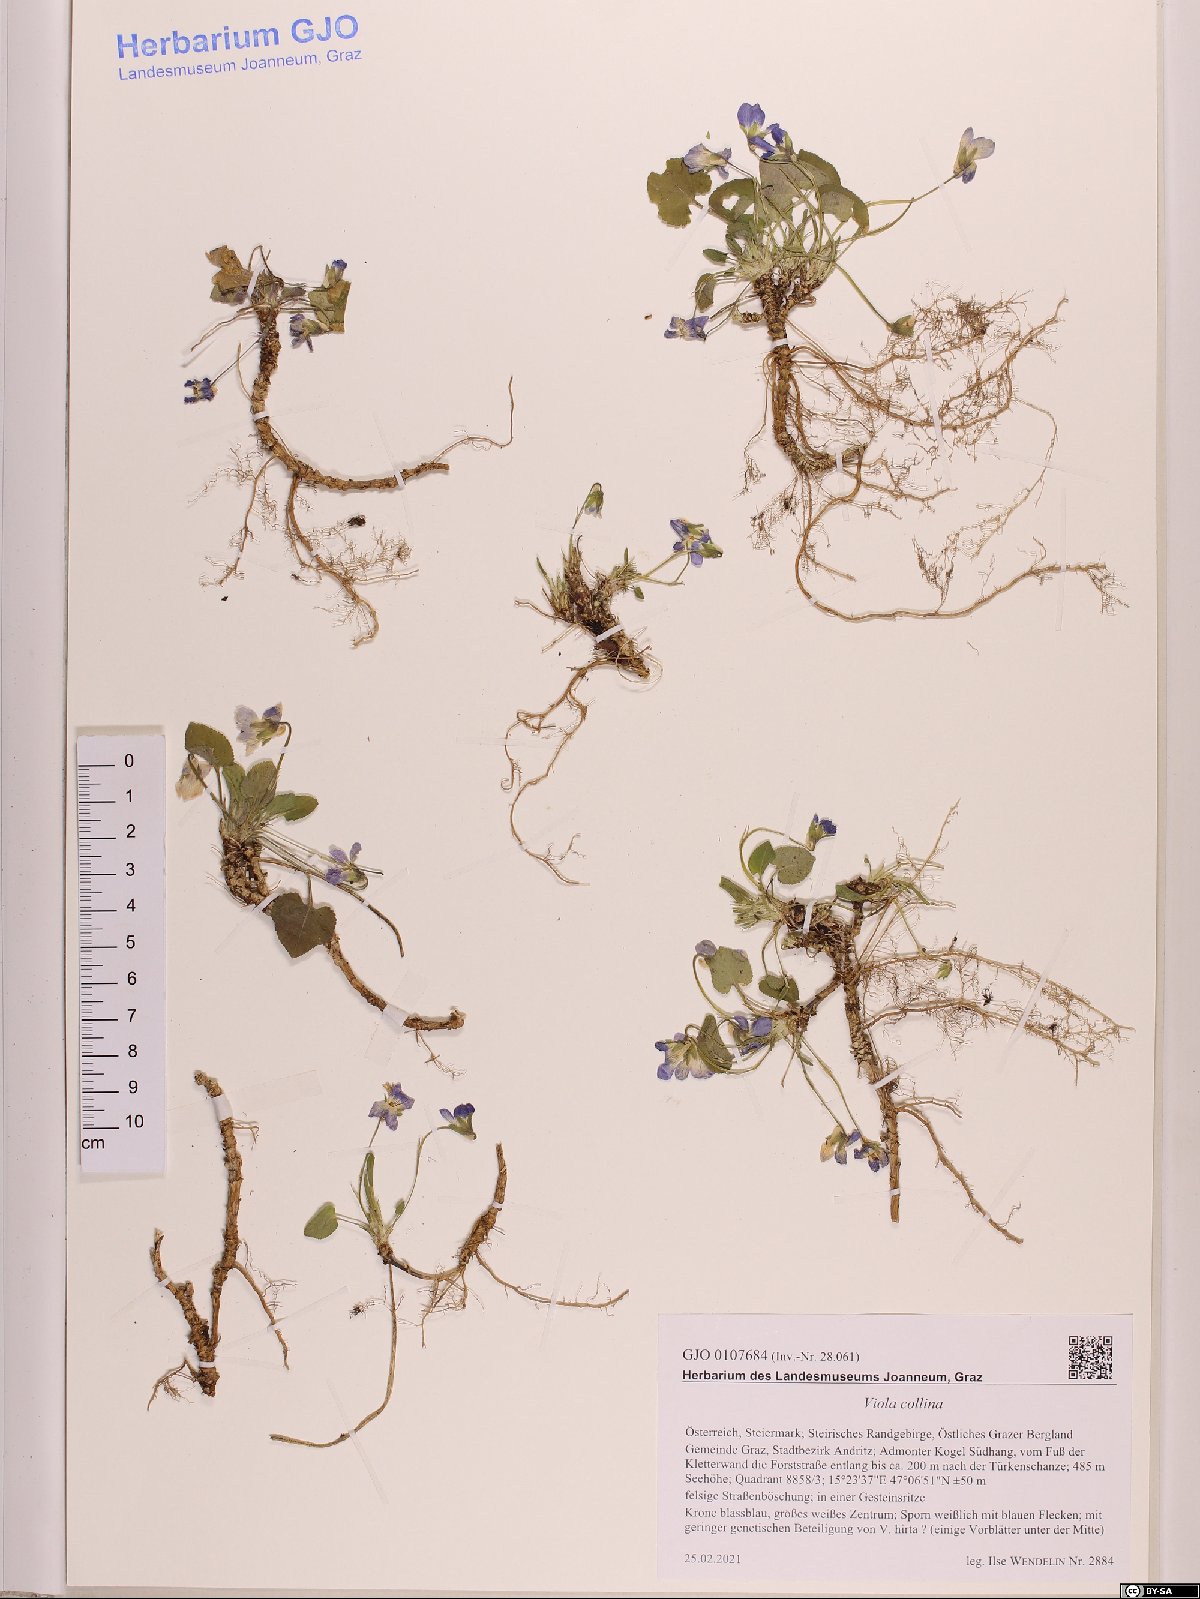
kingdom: Plantae
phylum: Tracheophyta
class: Magnoliopsida
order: Malpighiales
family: Violaceae
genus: Viola
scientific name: Viola collina
